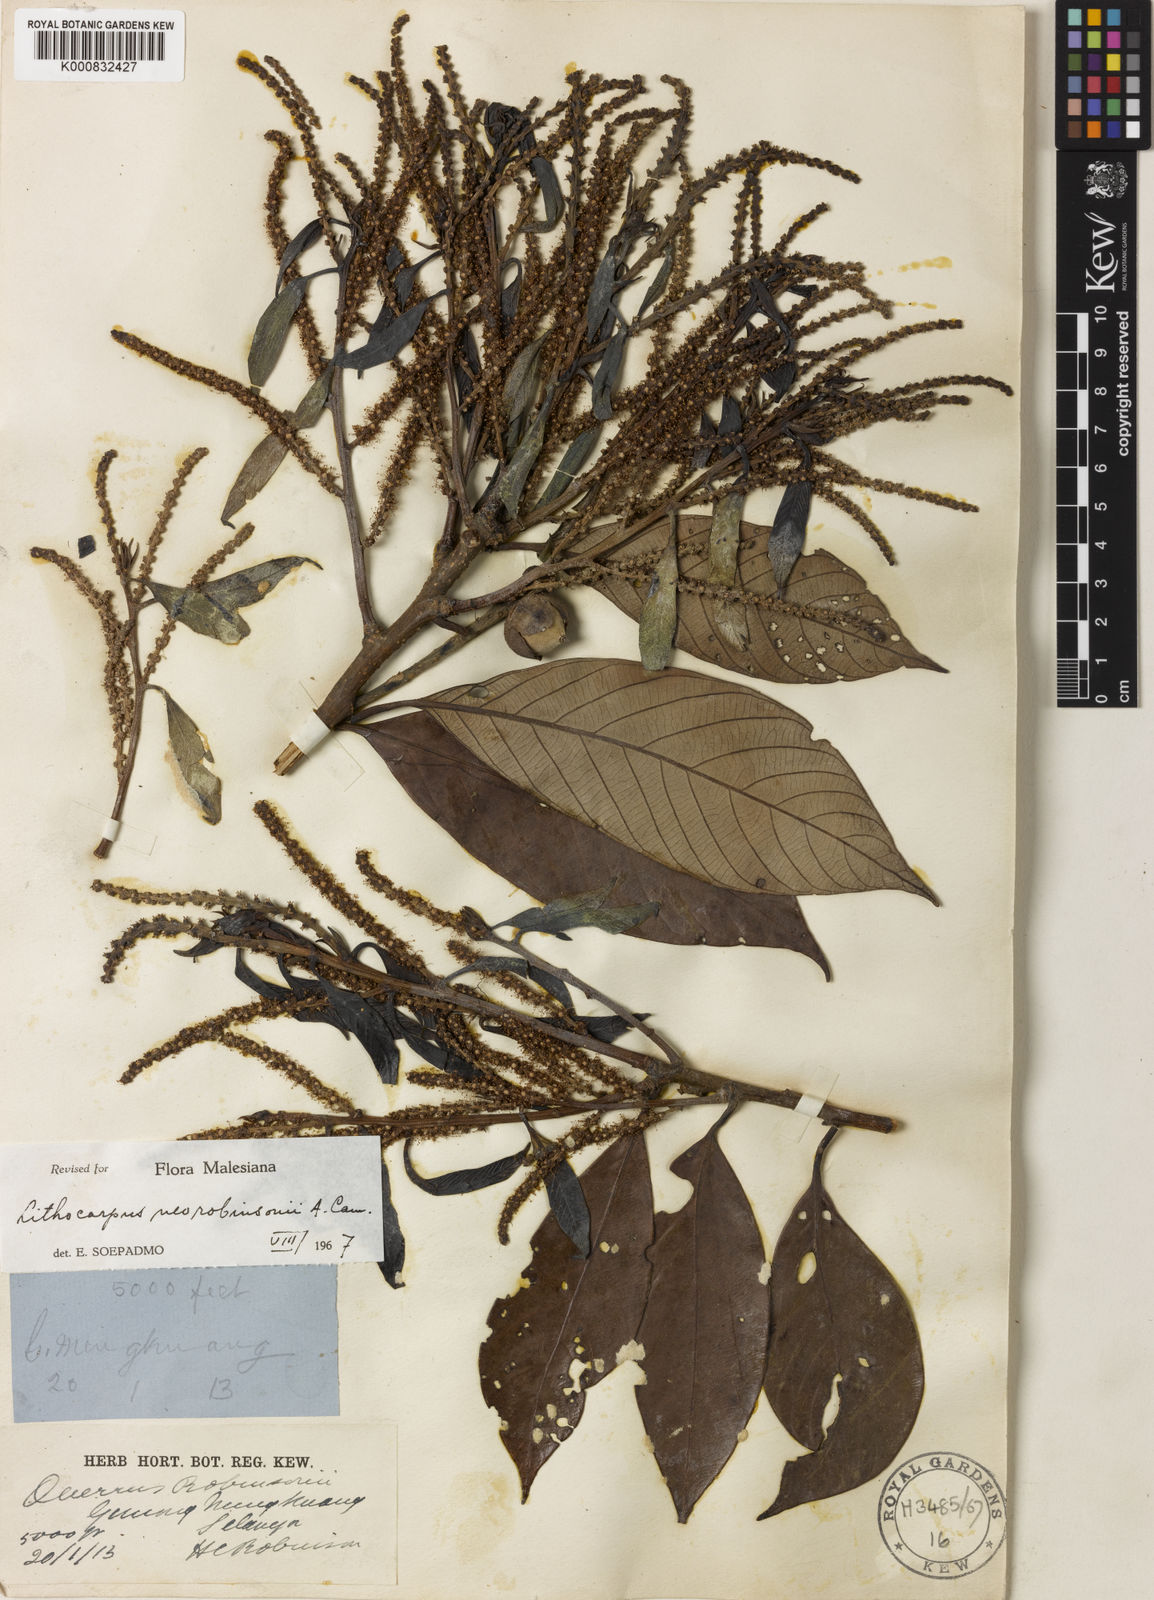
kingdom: Plantae
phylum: Tracheophyta
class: Magnoliopsida
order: Fagales
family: Fagaceae
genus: Lithocarpus
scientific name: Lithocarpus neorobinsonii
